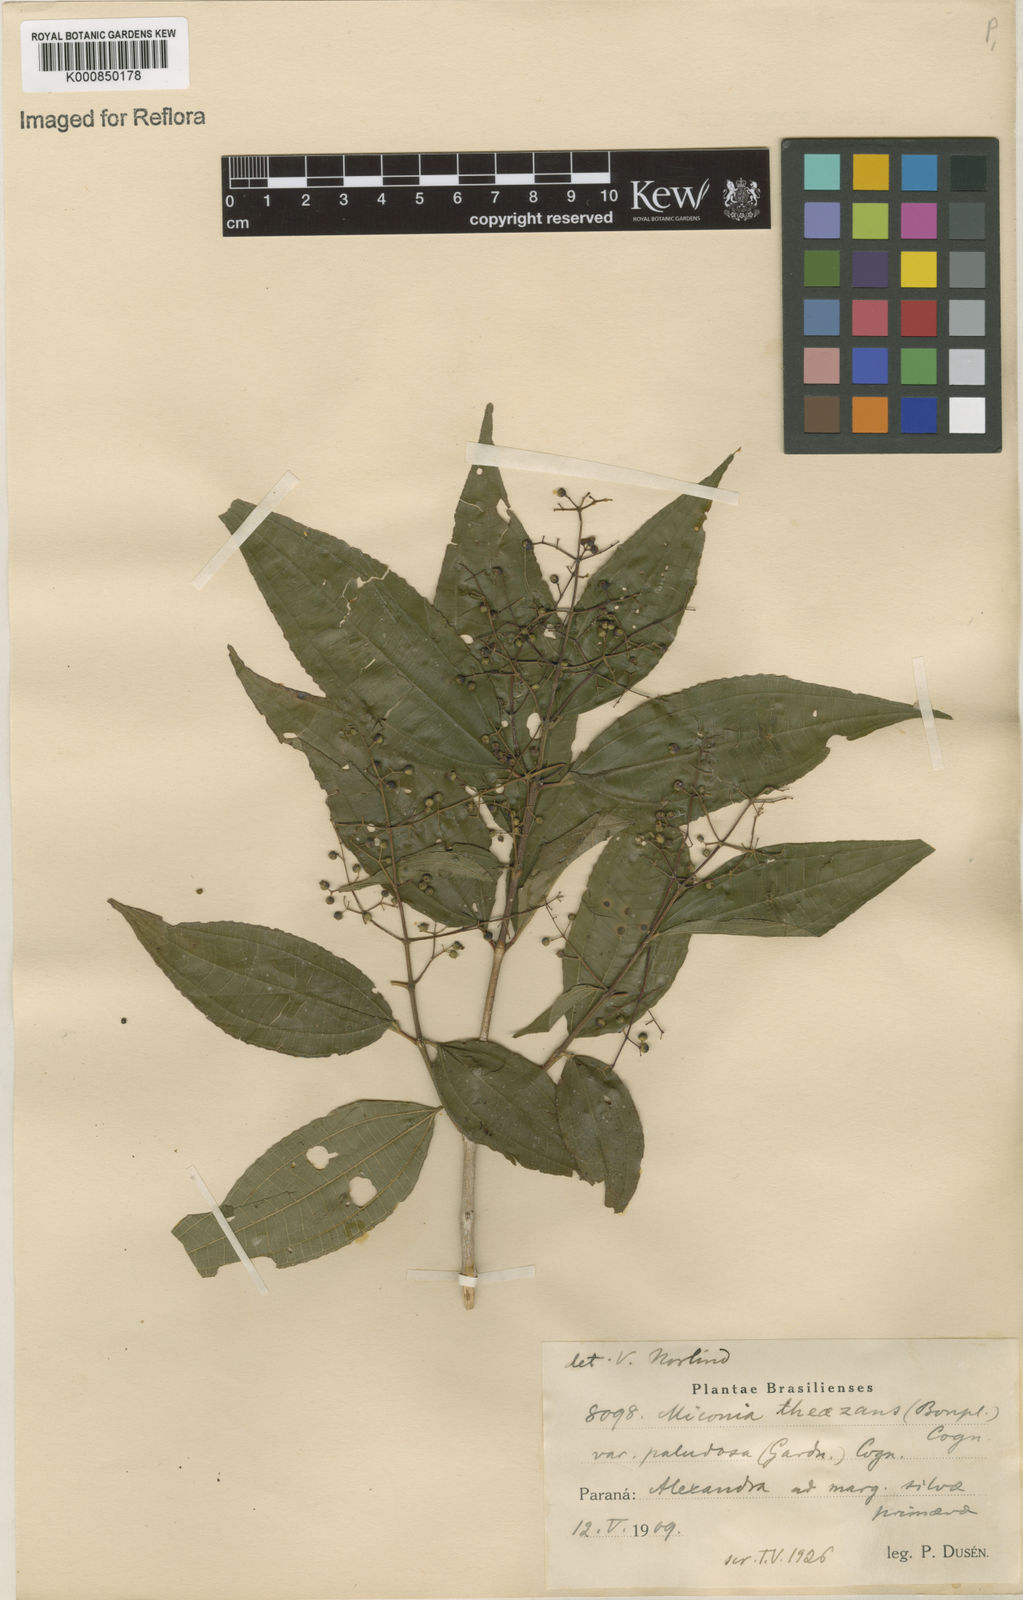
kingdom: Plantae
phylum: Tracheophyta
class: Magnoliopsida
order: Myrtales
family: Melastomataceae
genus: Miconia
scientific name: Miconia
